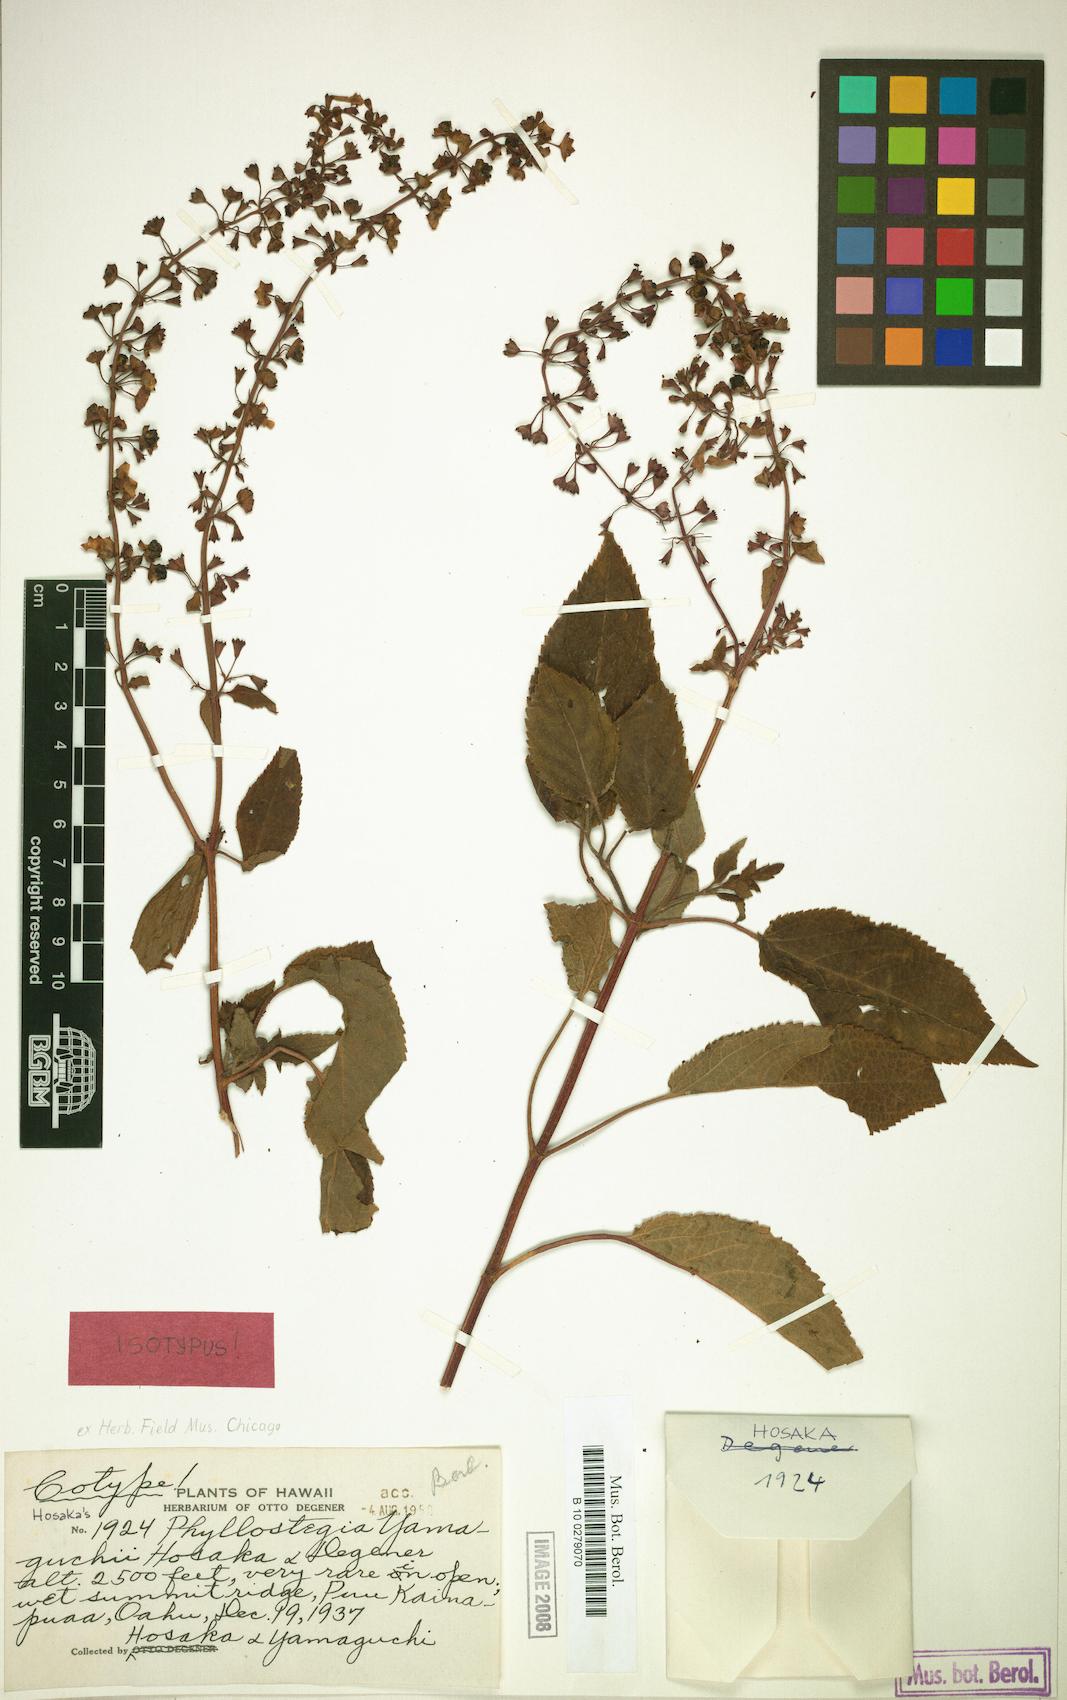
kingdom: Plantae
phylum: Tracheophyta
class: Magnoliopsida
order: Lamiales
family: Lamiaceae
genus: Phyllostegia
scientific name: Phyllostegia yamaguchii
